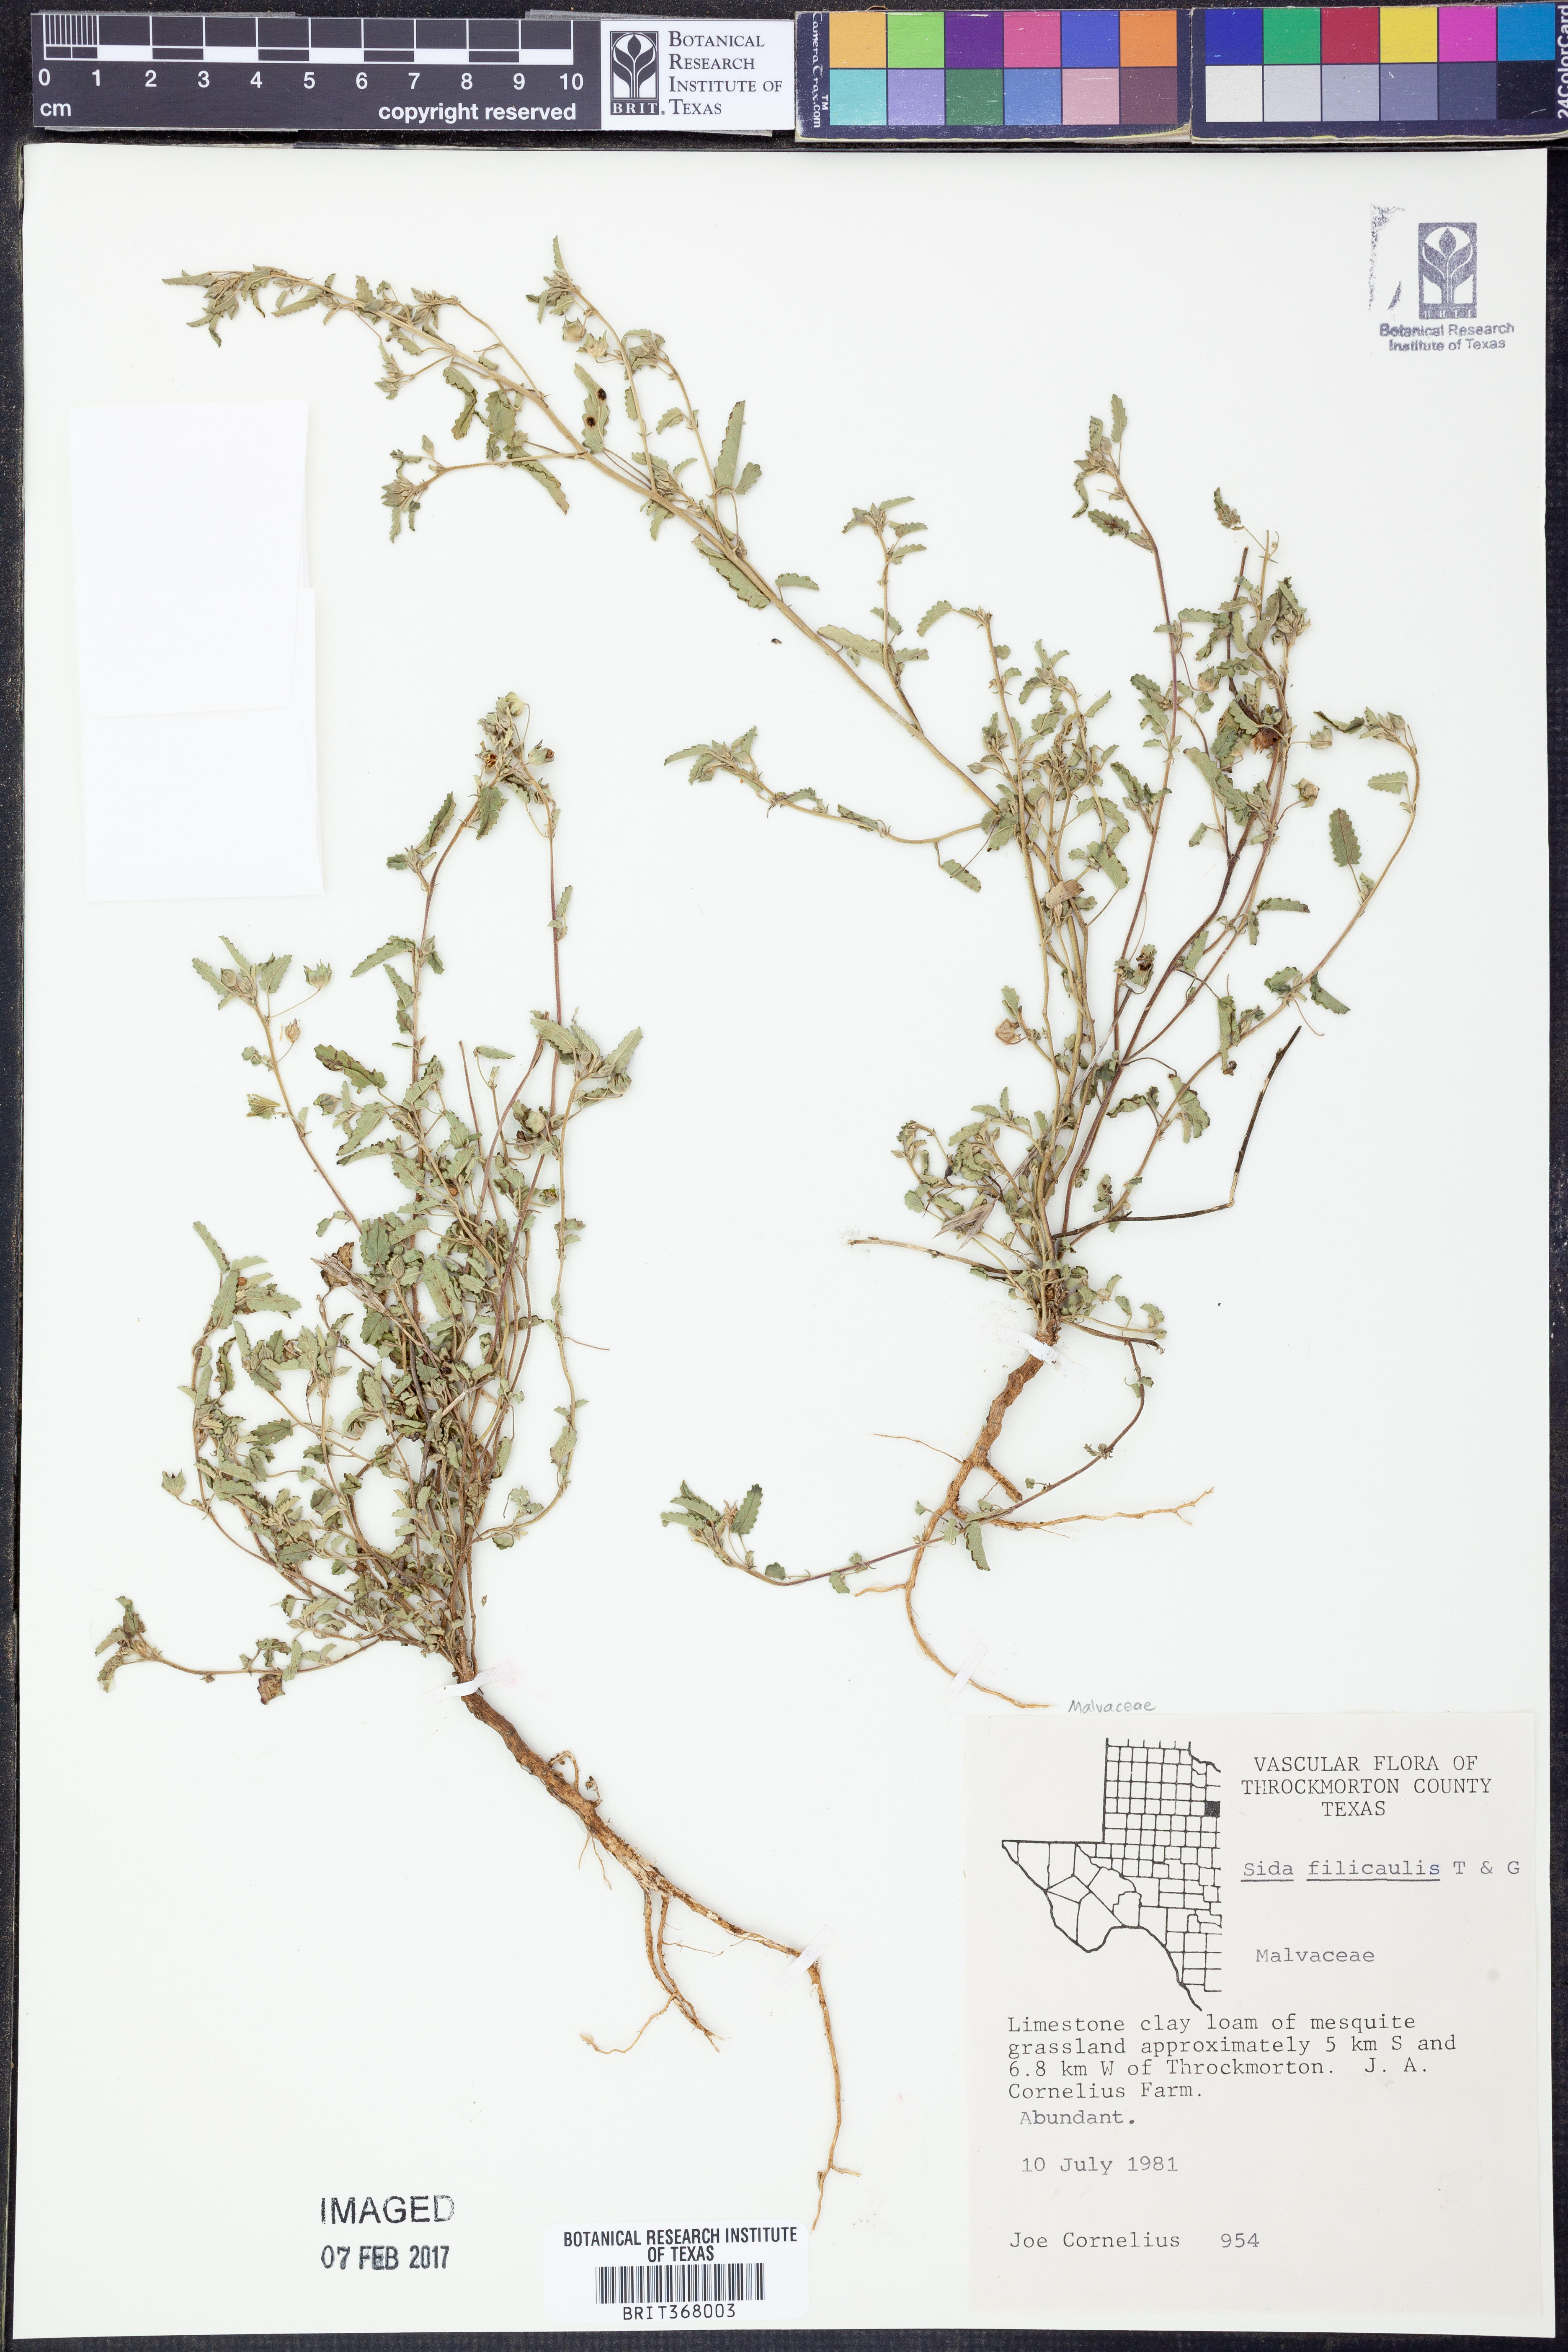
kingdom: Plantae
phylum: Tracheophyta
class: Magnoliopsida
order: Malvales
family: Malvaceae
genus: Sida
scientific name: Sida abutilifolia
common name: Spreading fanpetals
